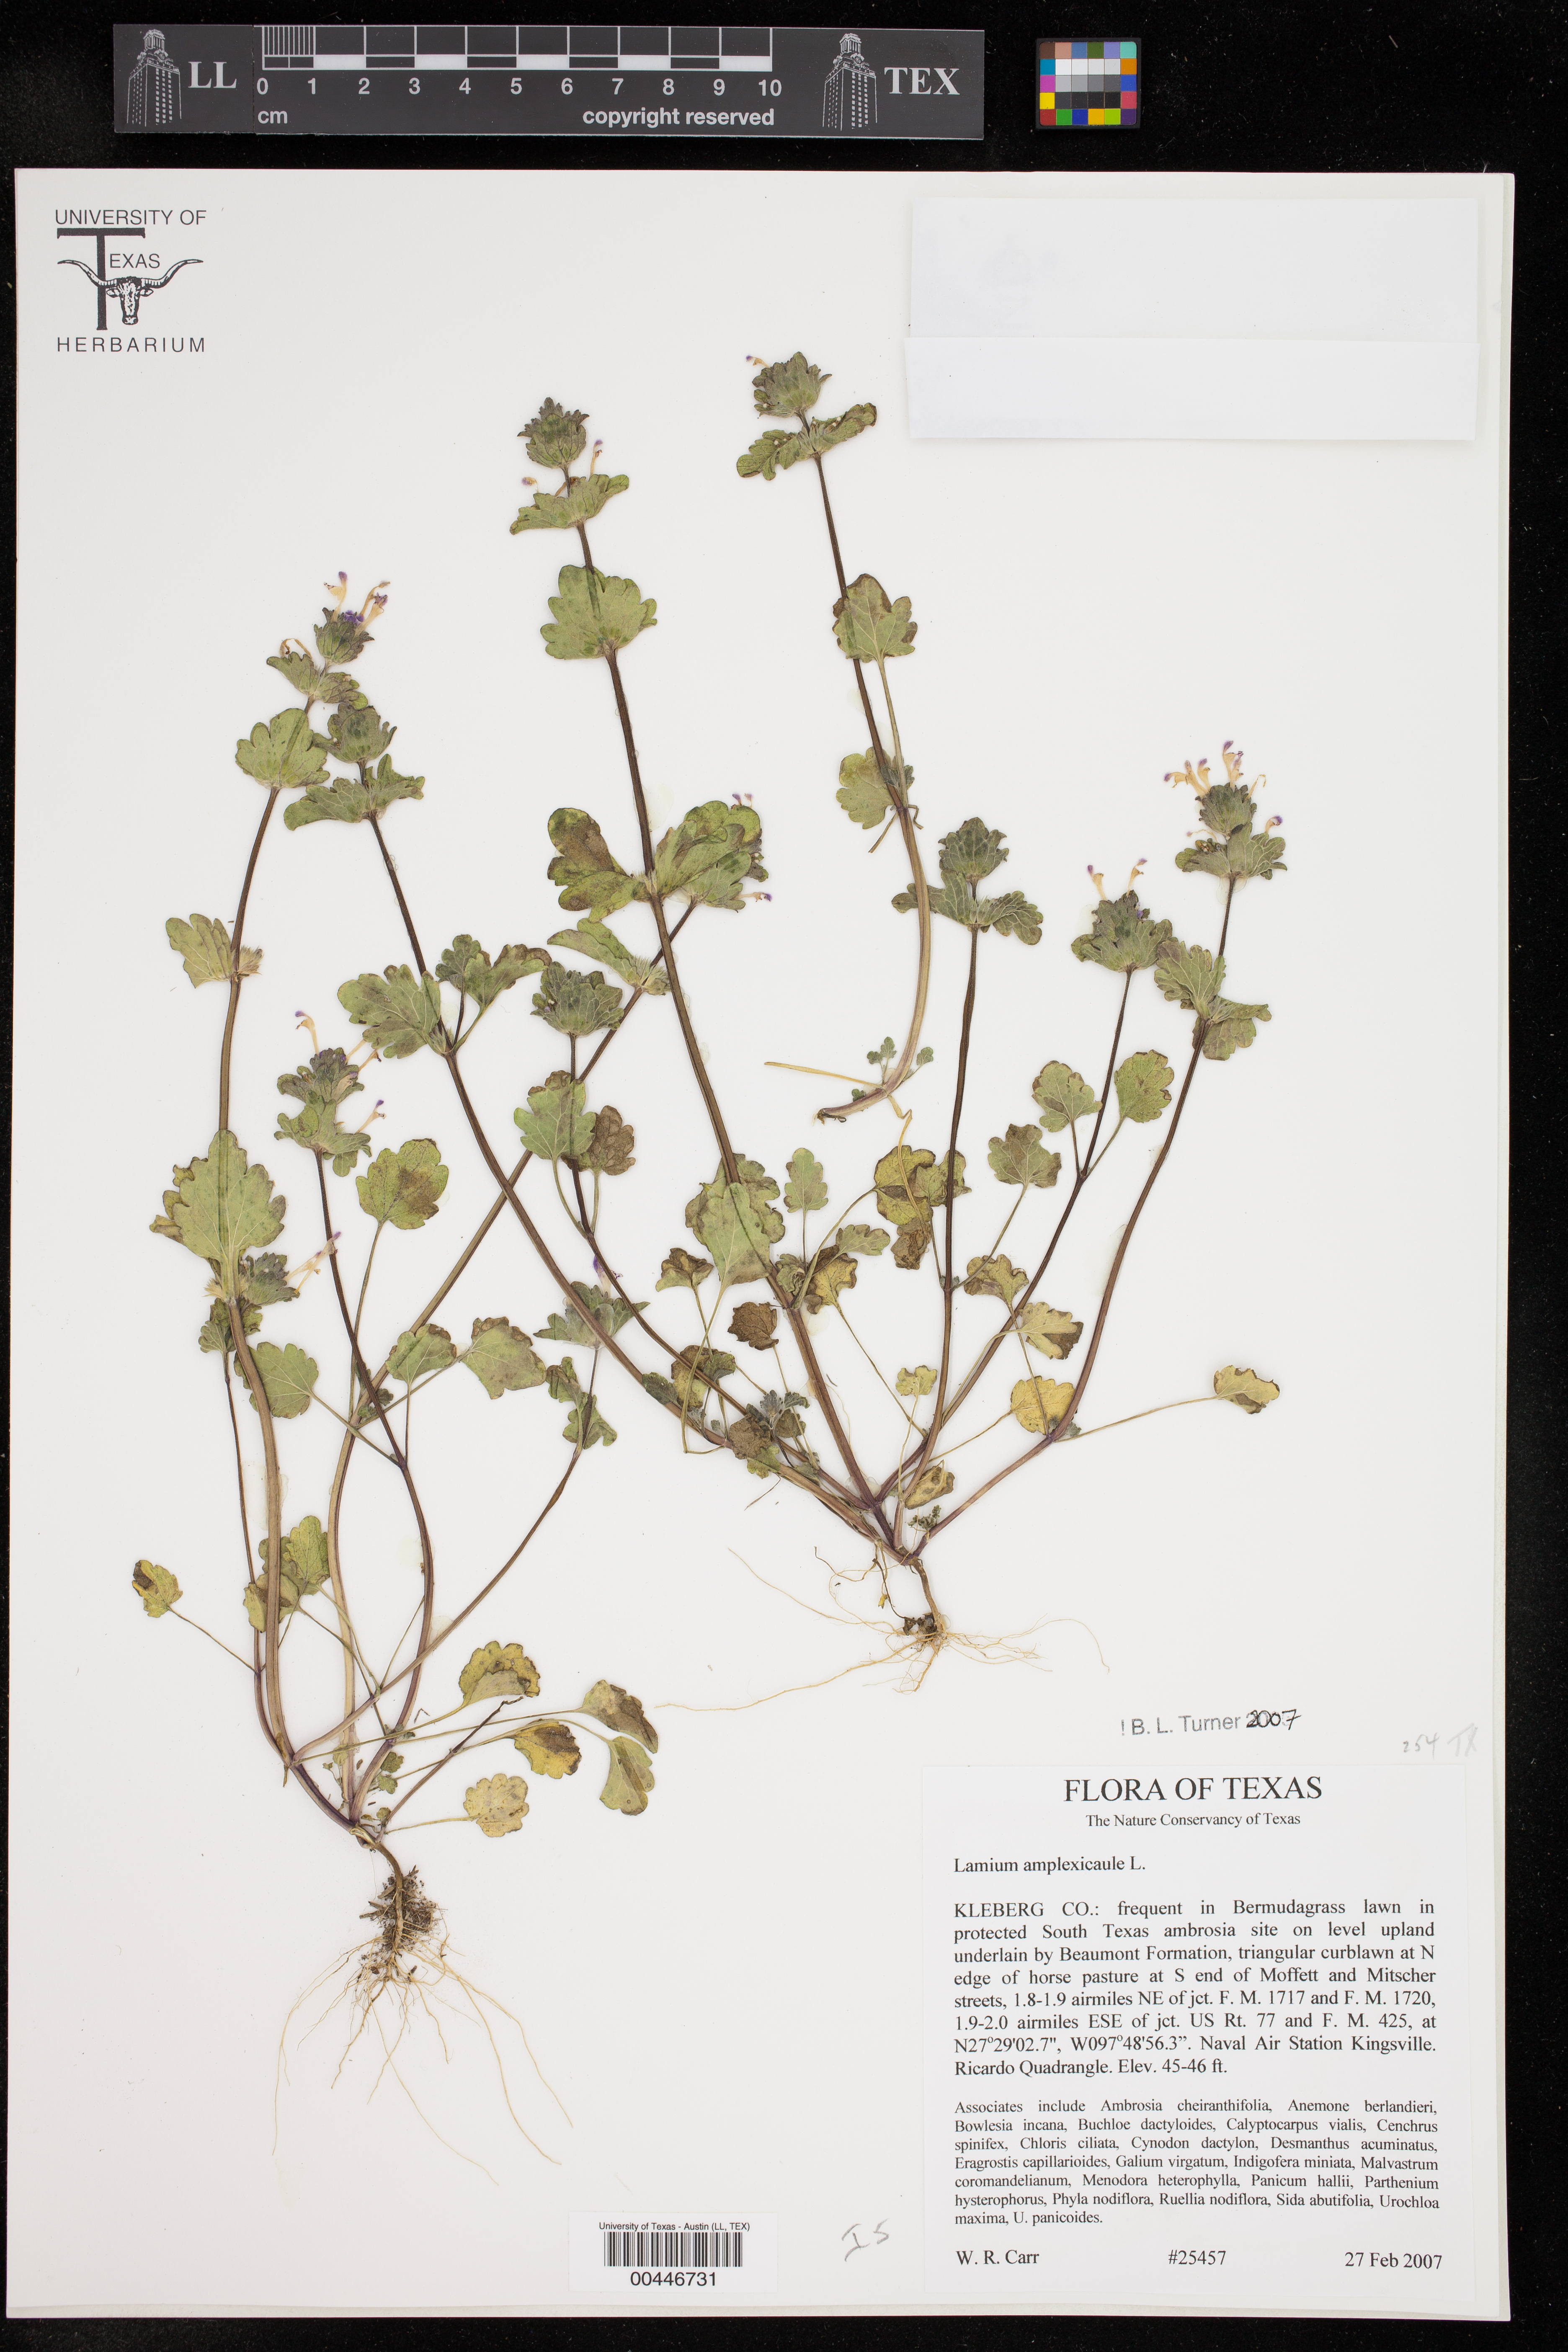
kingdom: Plantae
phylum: Tracheophyta
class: Magnoliopsida
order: Lamiales
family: Lamiaceae
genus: Lamium
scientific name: Lamium amplexicaule
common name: Henbit dead-nettle
